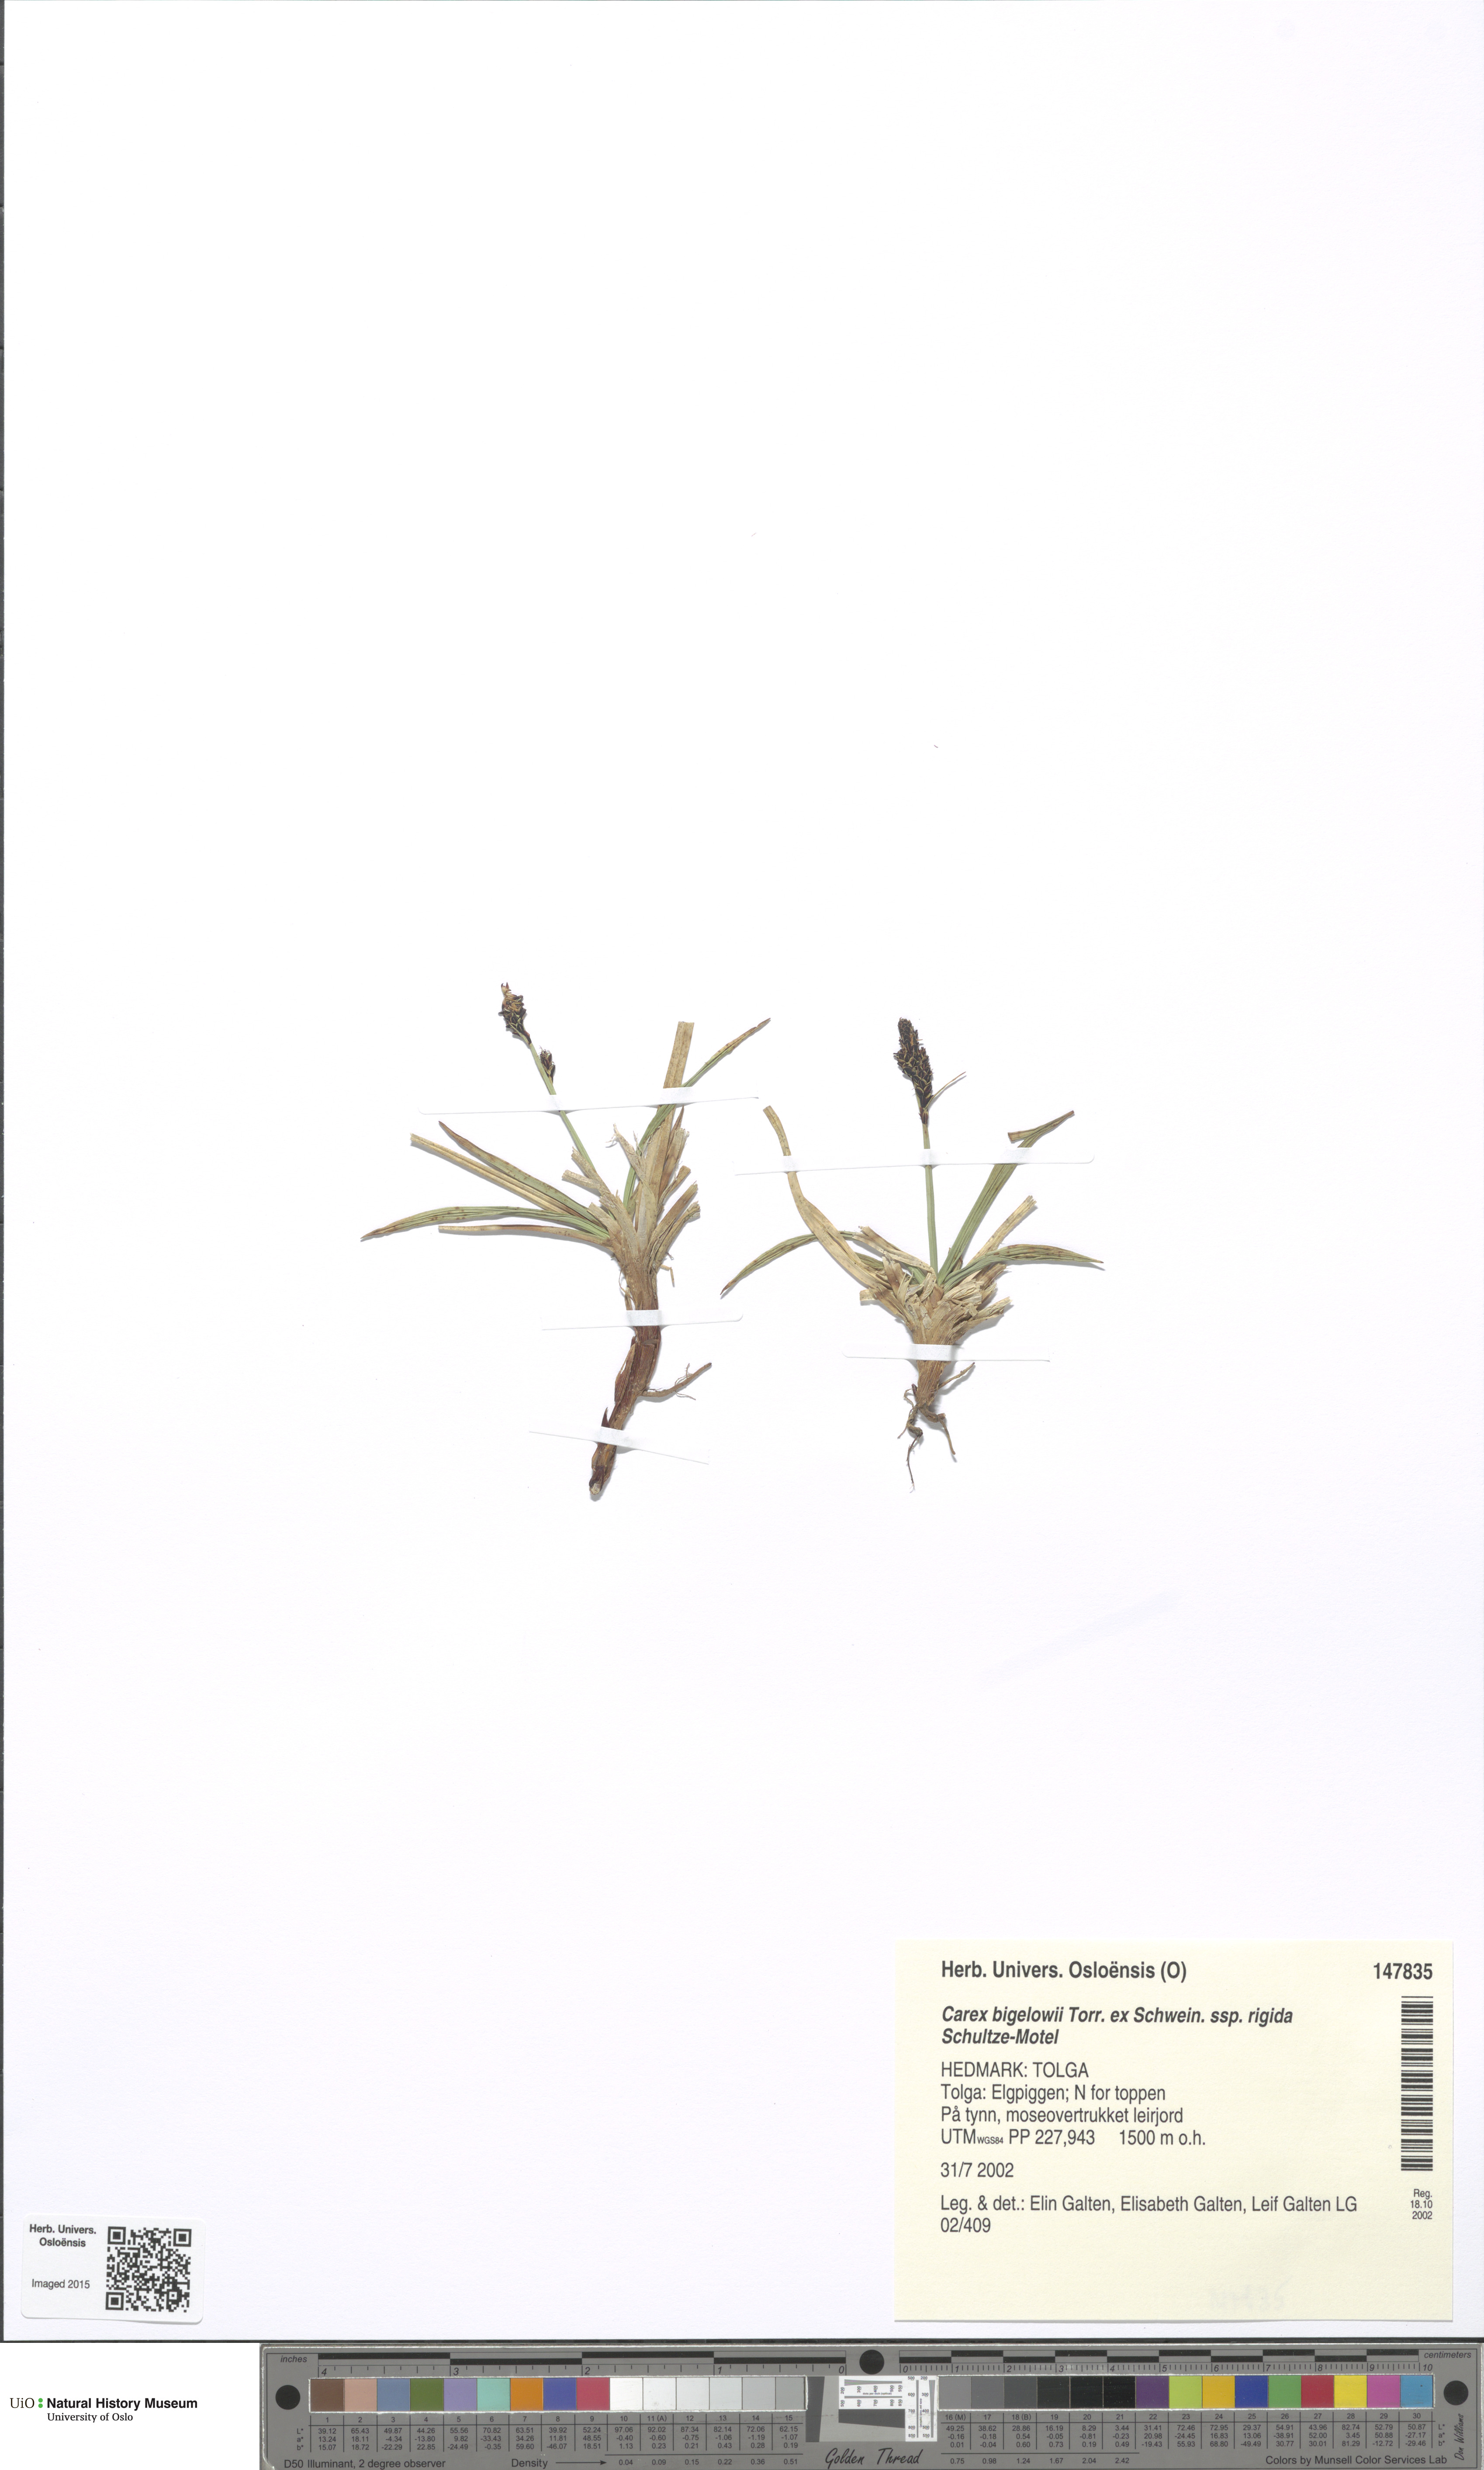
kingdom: Plantae
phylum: Tracheophyta
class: Liliopsida
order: Poales
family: Cyperaceae
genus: Carex
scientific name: Carex dacica
